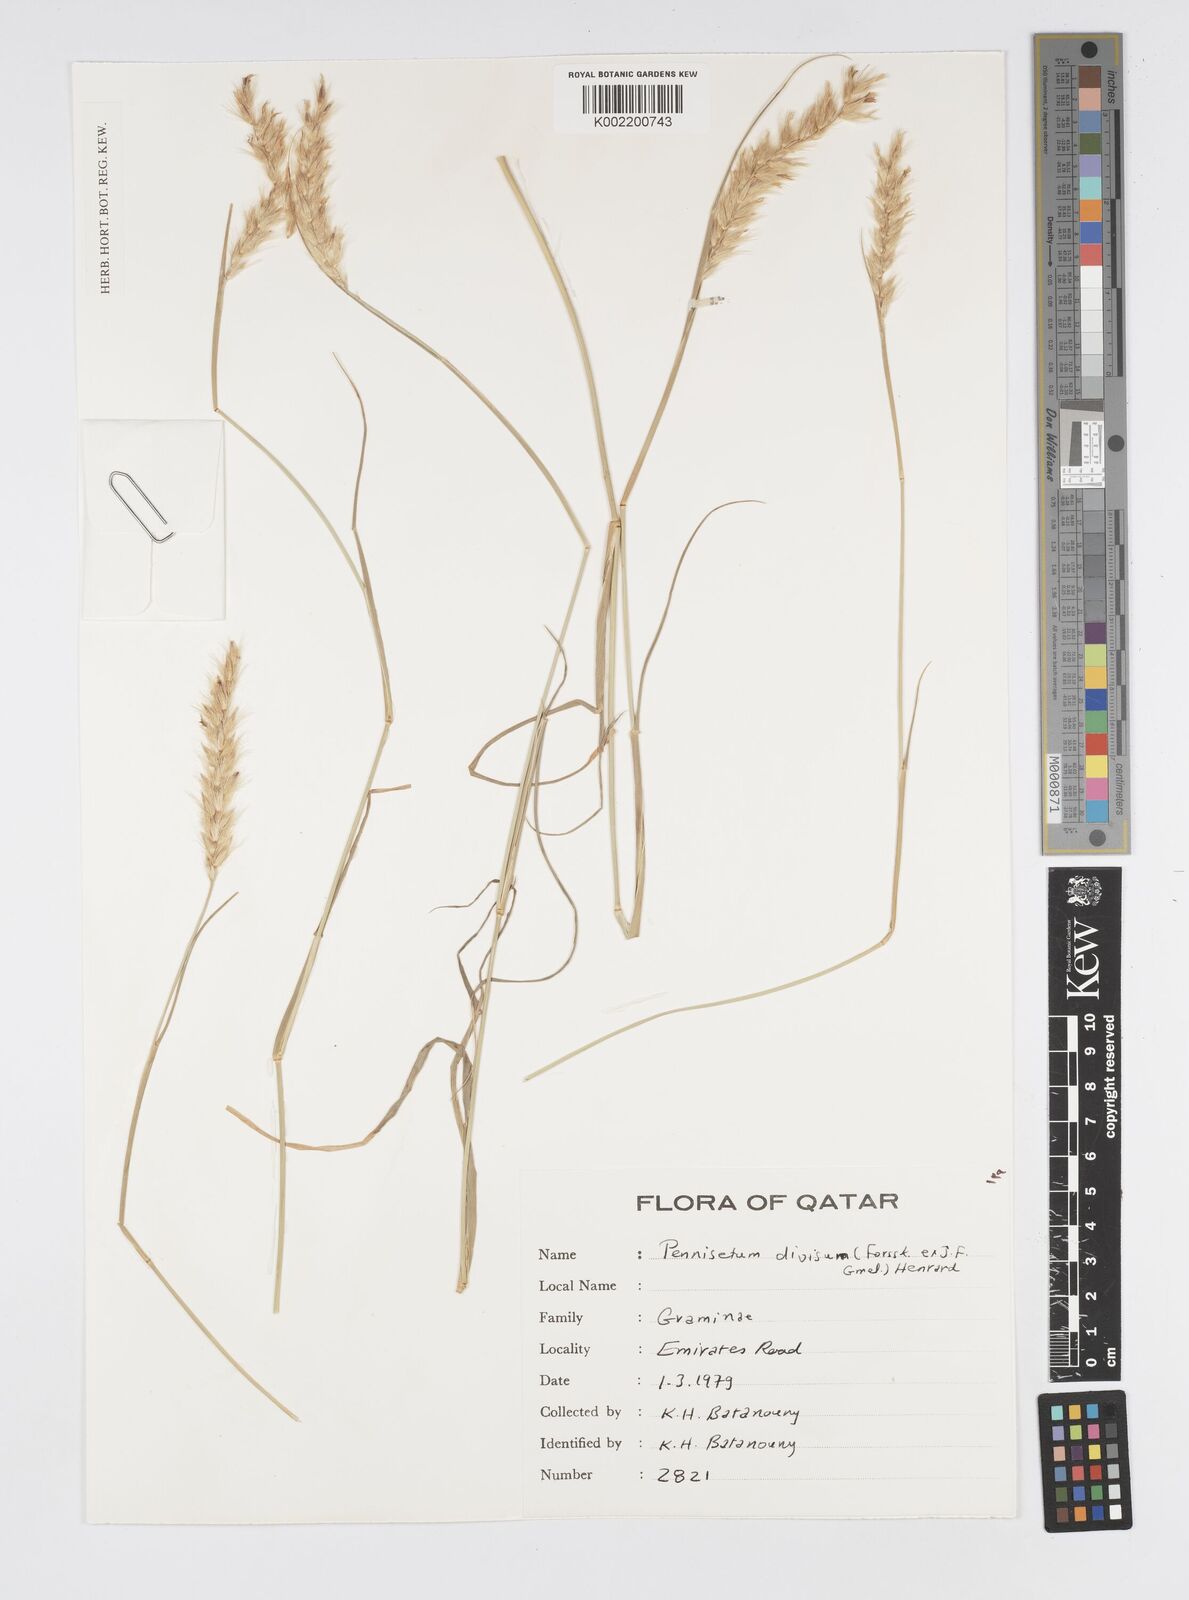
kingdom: Plantae
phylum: Tracheophyta
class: Liliopsida
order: Poales
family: Poaceae
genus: Cenchrus
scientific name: Cenchrus divisus
